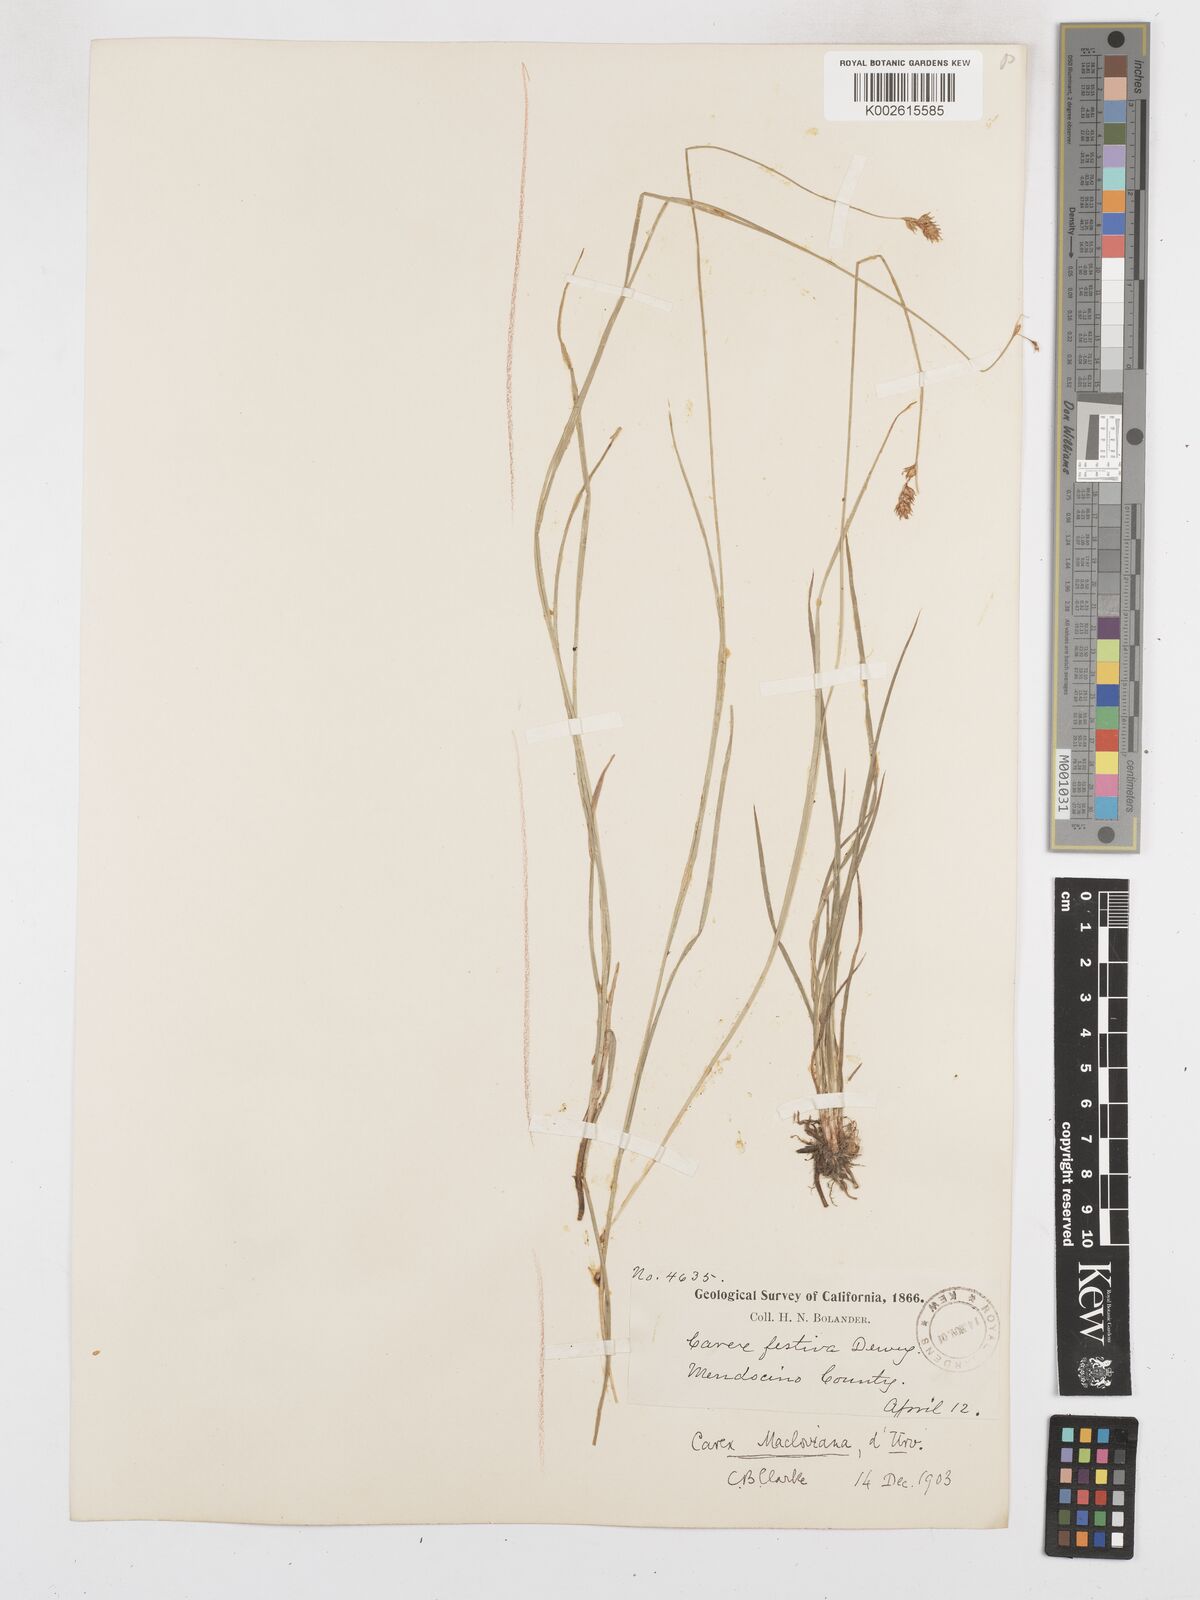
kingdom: Plantae
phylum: Tracheophyta
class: Liliopsida
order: Poales
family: Cyperaceae
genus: Carex
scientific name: Carex macloviana
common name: Falkland island sedge
